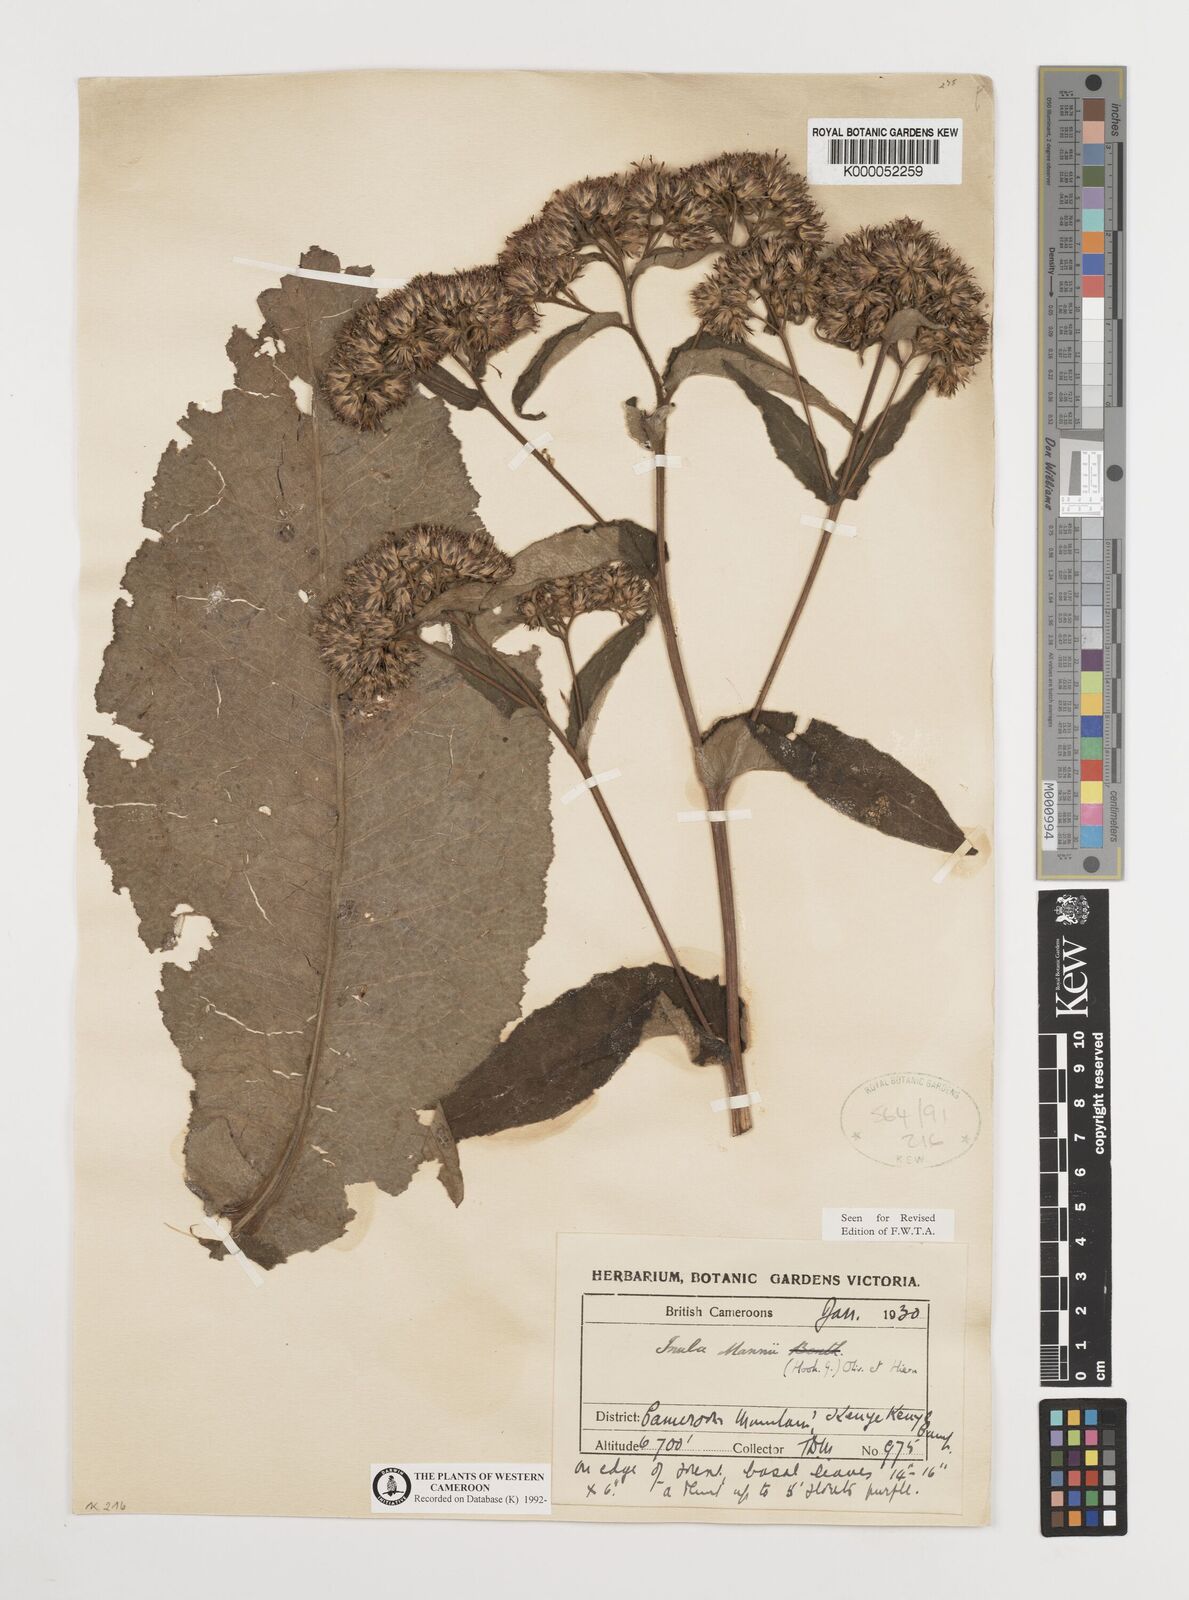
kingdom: Plantae
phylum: Tracheophyta
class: Magnoliopsida
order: Asterales
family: Asteraceae
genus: Inula
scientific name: Inula mannii
